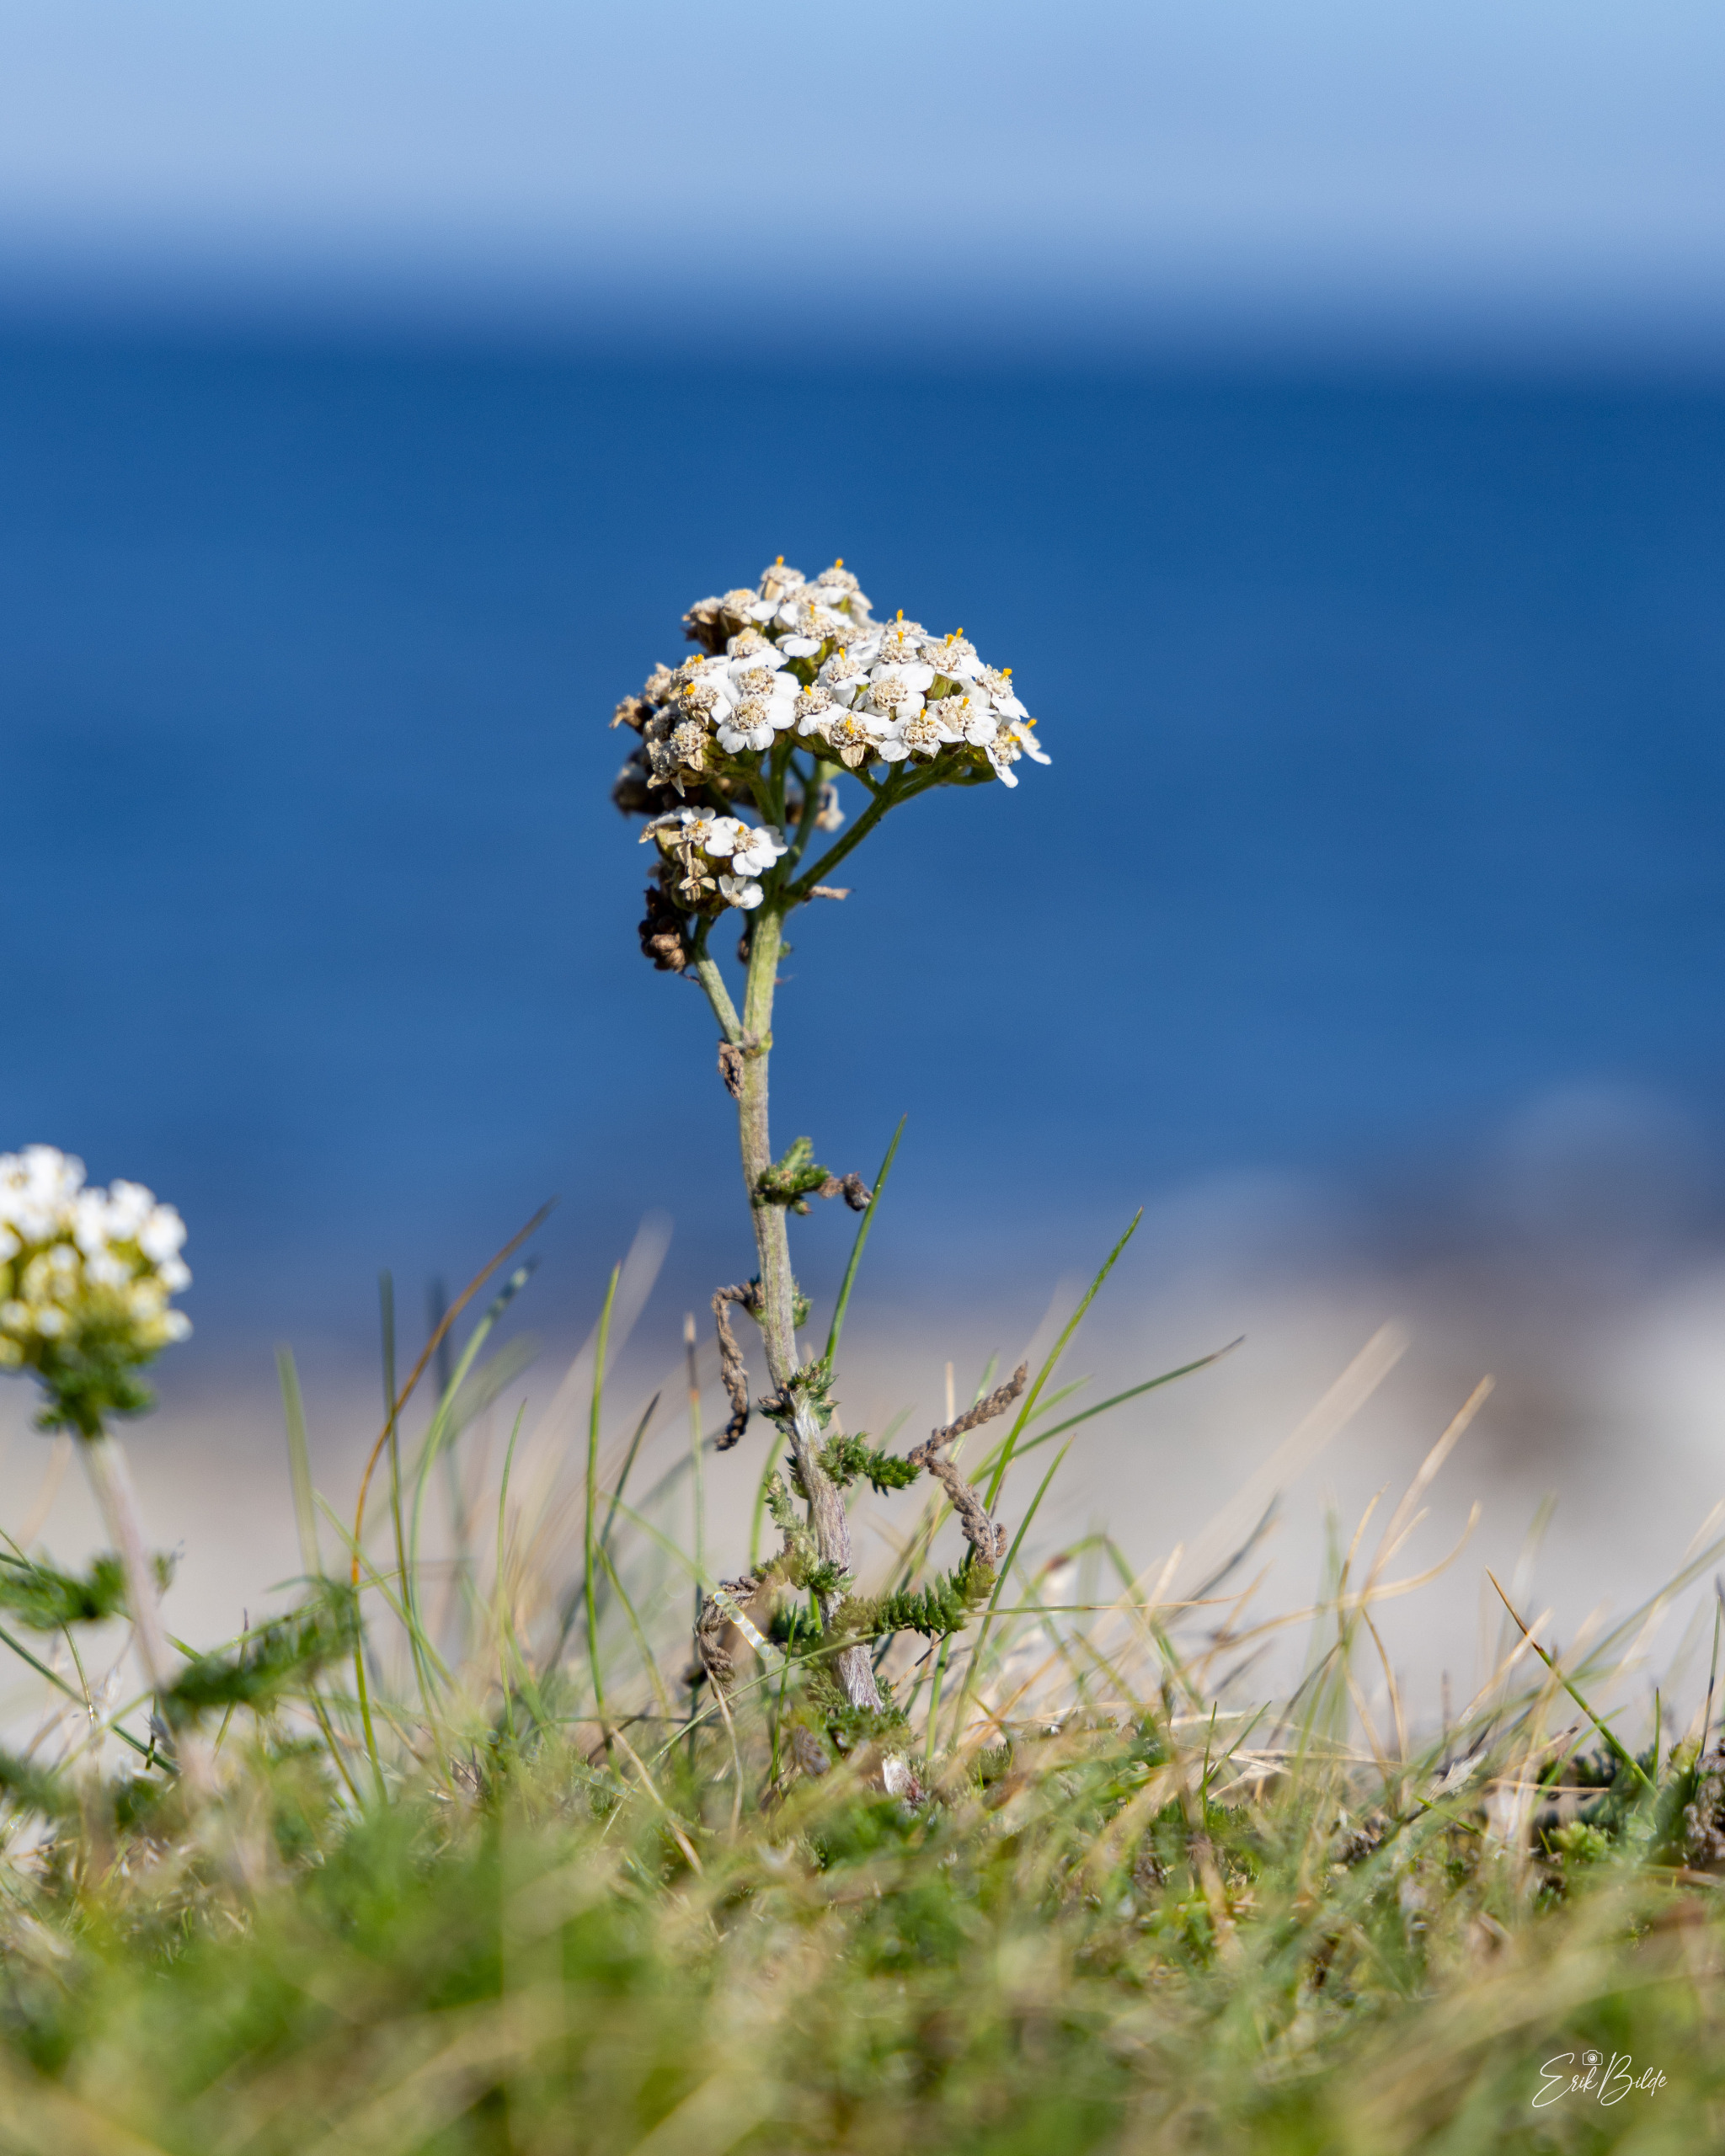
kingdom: Plantae
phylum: Tracheophyta
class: Magnoliopsida
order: Asterales
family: Asteraceae
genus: Achillea
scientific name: Achillea millefolium
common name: Almindelig røllike
